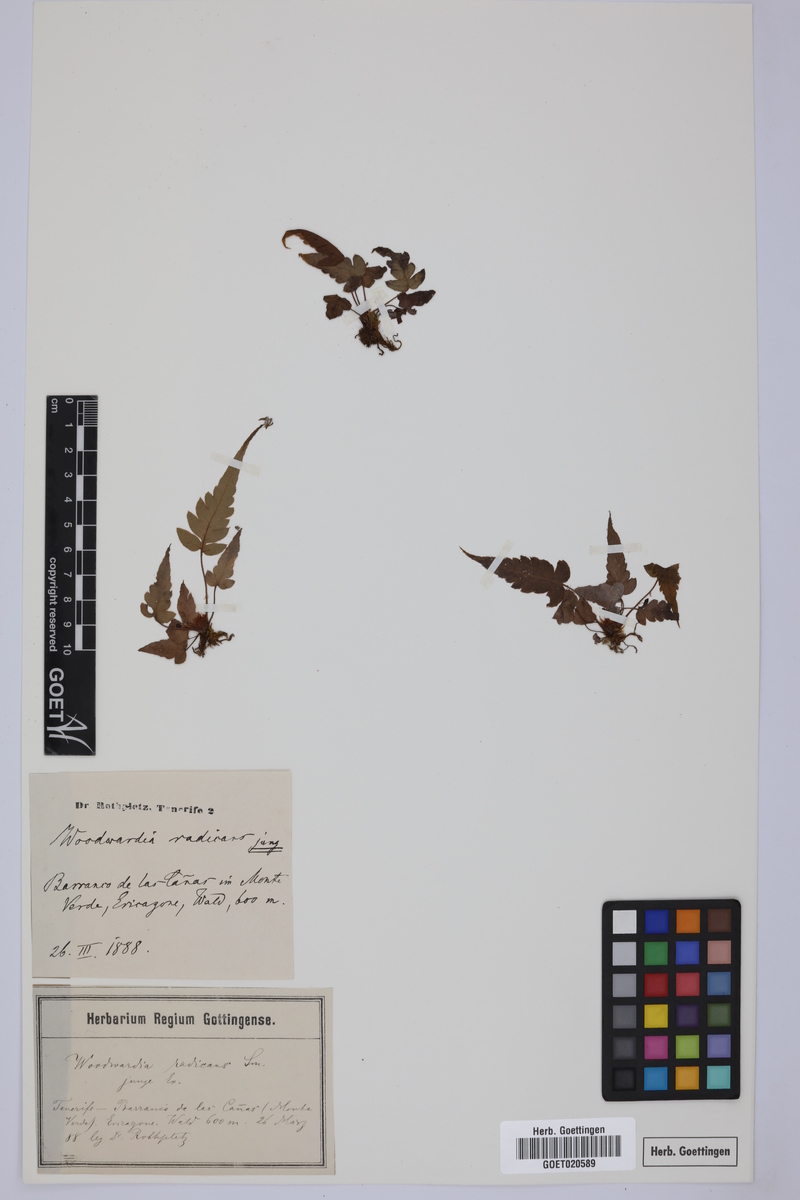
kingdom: Plantae
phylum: Tracheophyta
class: Polypodiopsida
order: Polypodiales
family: Blechnaceae
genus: Woodwardia
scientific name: Woodwardia radicans
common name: Rooting chainfern
